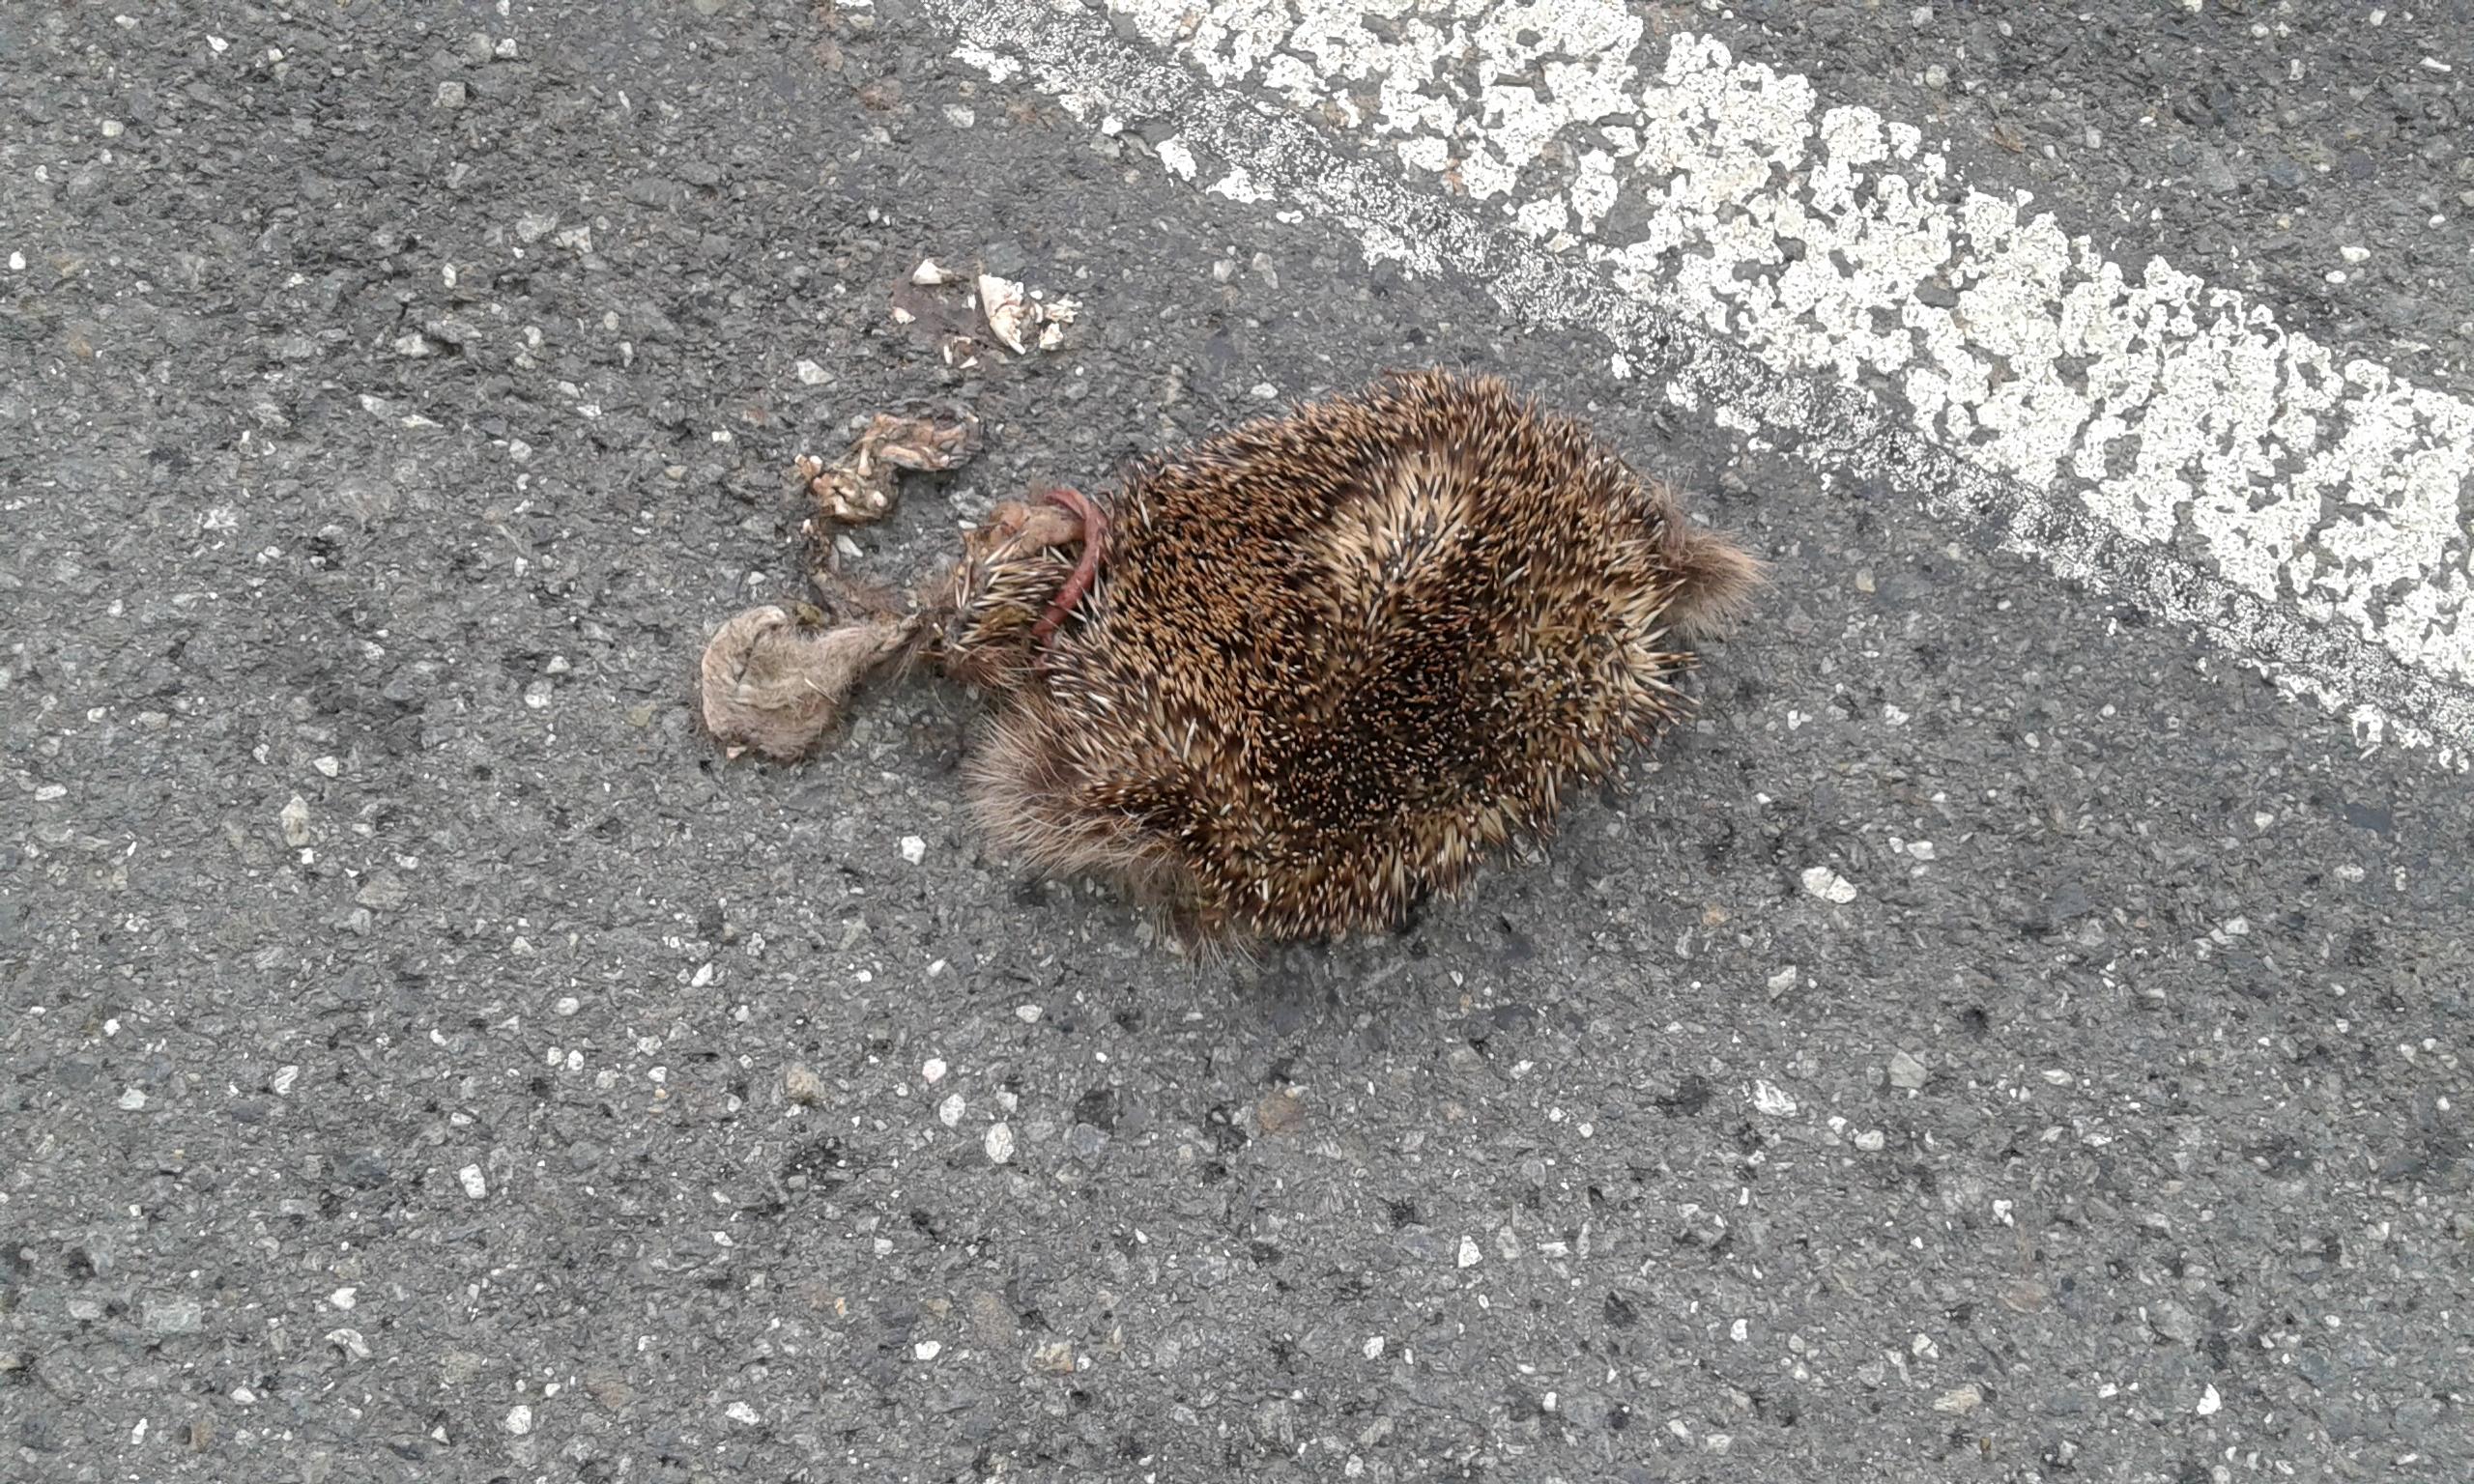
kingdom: Animalia
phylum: Chordata
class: Mammalia
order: Erinaceomorpha
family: Erinaceidae
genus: Erinaceus
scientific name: Erinaceus
